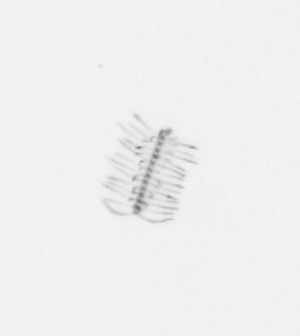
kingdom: Chromista
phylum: Ochrophyta
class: Bacillariophyceae
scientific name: Bacillariophyceae
